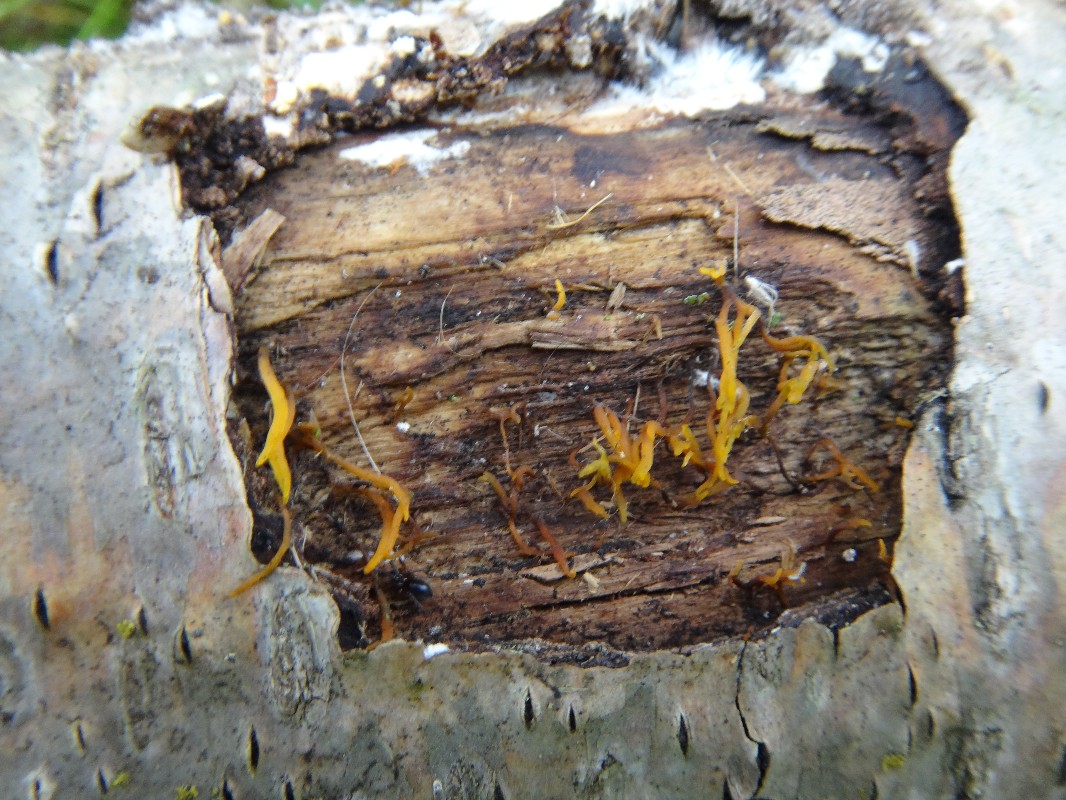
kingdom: Fungi
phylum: Basidiomycota
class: Dacrymycetes
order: Dacrymycetales
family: Dacrymycetaceae
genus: Calocera
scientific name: Calocera cornea
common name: liden guldgaffel
